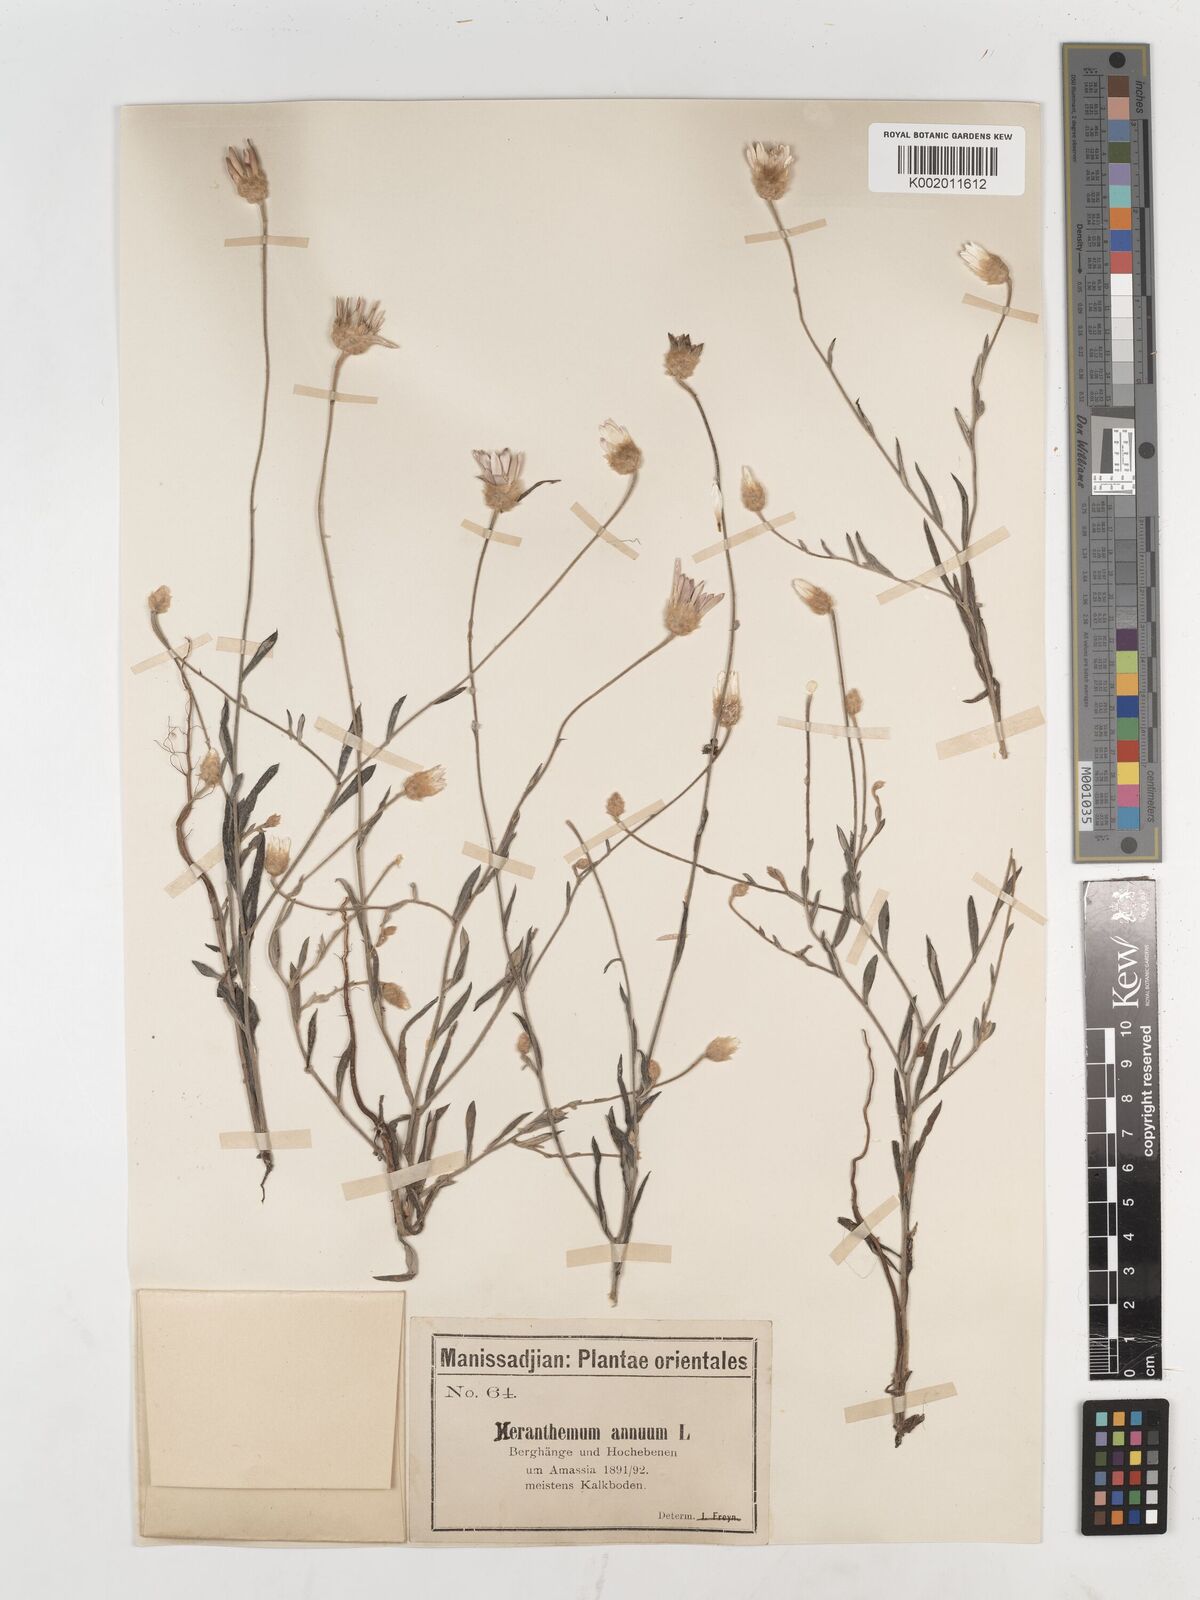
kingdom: Plantae
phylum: Tracheophyta
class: Magnoliopsida
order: Asterales
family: Asteraceae
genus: Xeranthemum
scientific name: Xeranthemum annuum
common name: Immortelle
